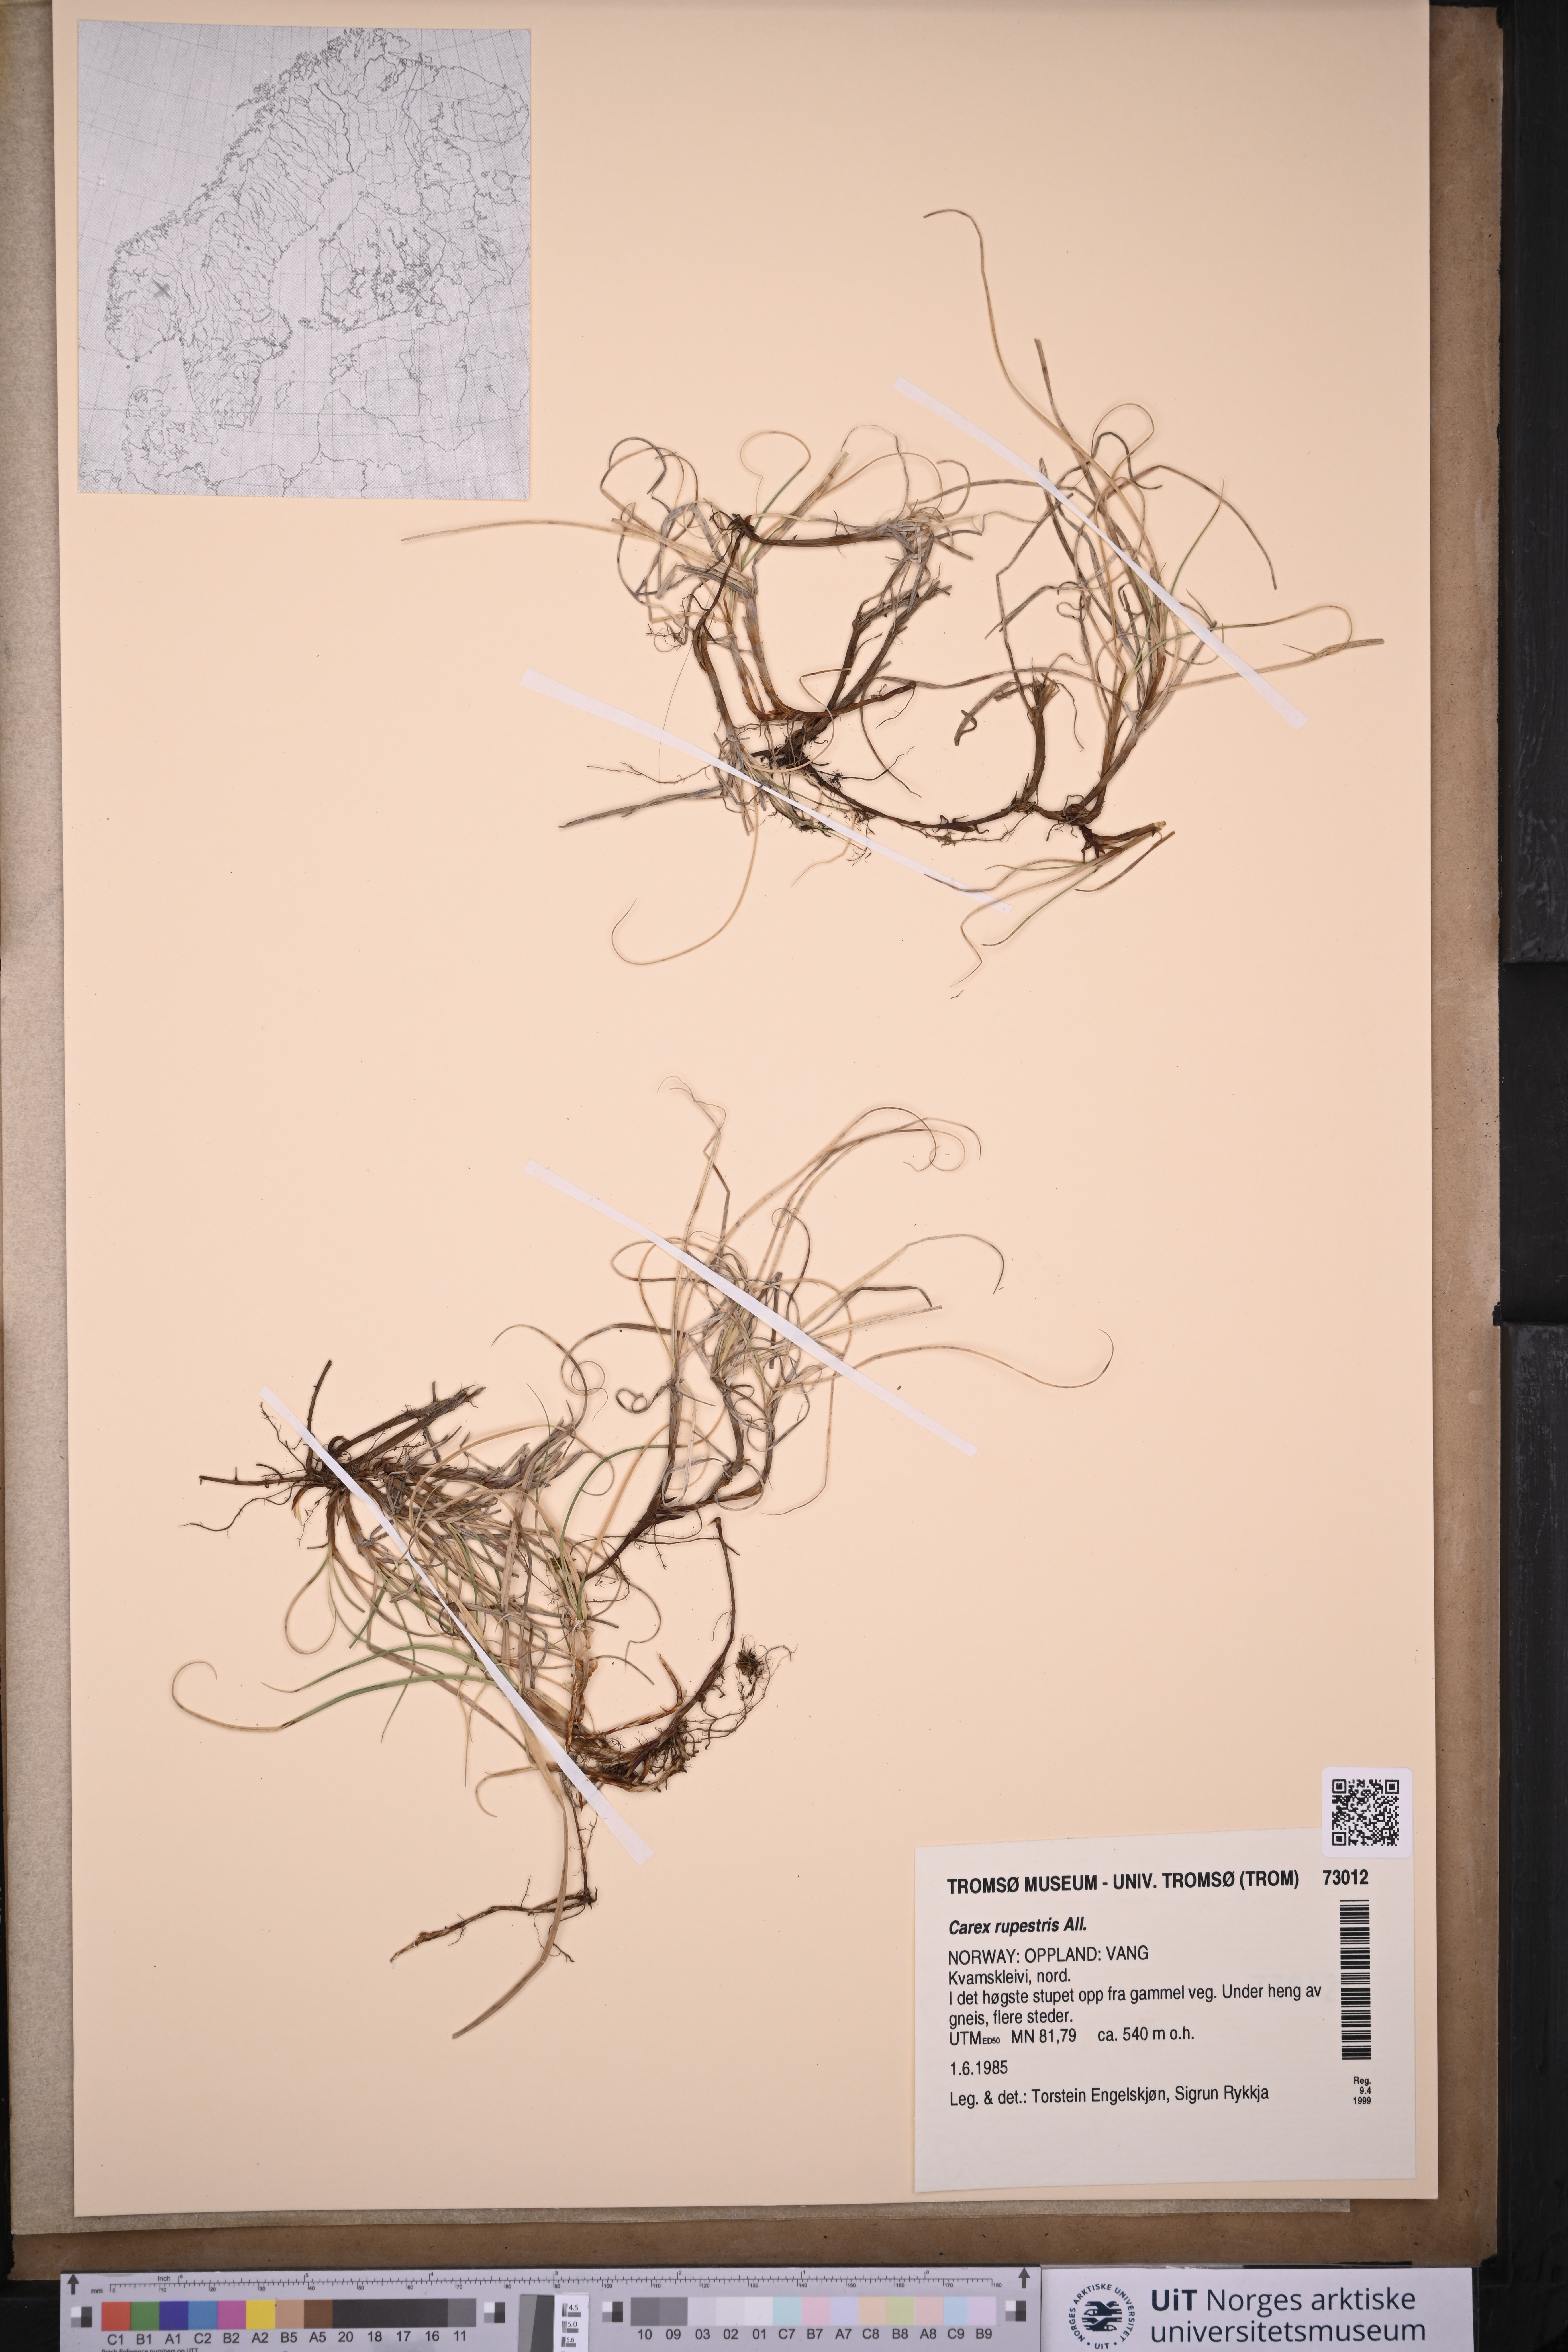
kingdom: Plantae
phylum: Tracheophyta
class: Liliopsida
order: Poales
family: Cyperaceae
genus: Carex
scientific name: Carex rupestris
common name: Rock sedge
